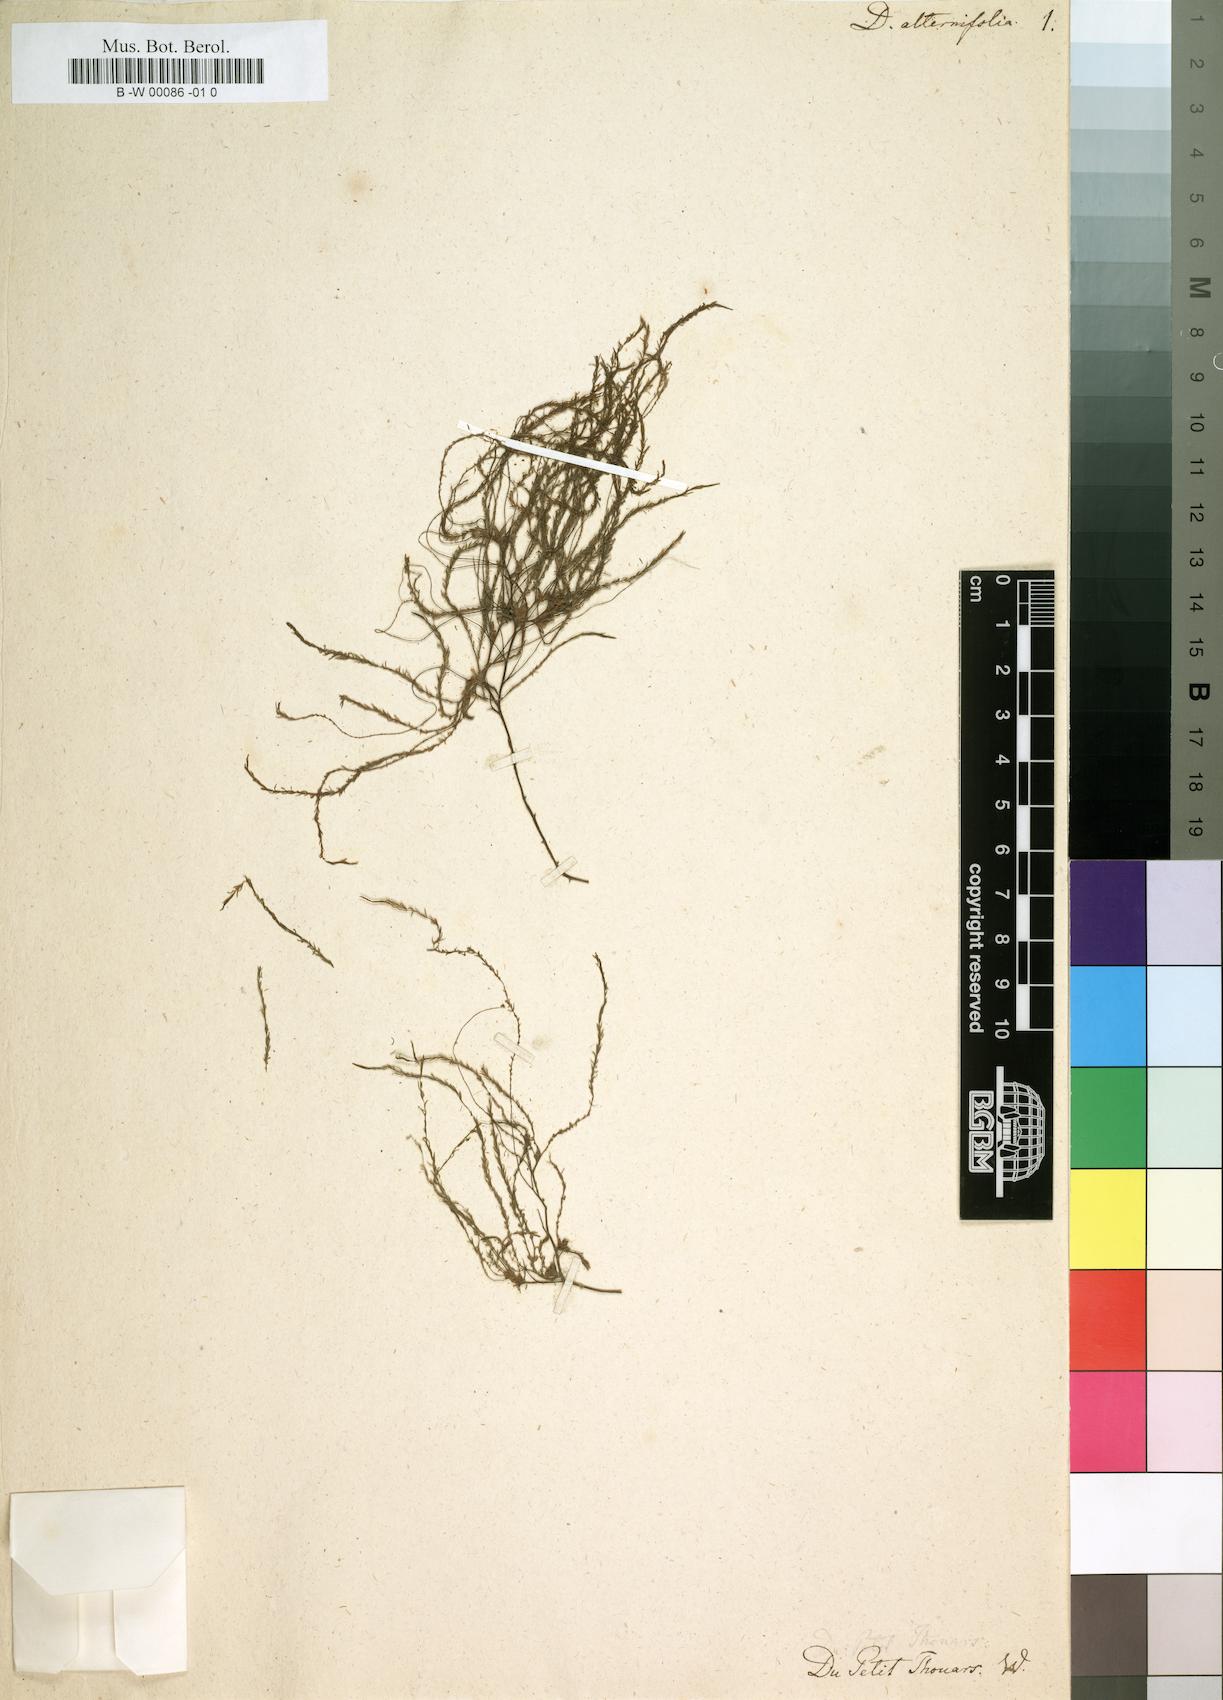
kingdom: Plantae
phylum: Tracheophyta
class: Magnoliopsida
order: Malpighiales
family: Podostemaceae
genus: Tristicha
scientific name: Tristicha trifaria
